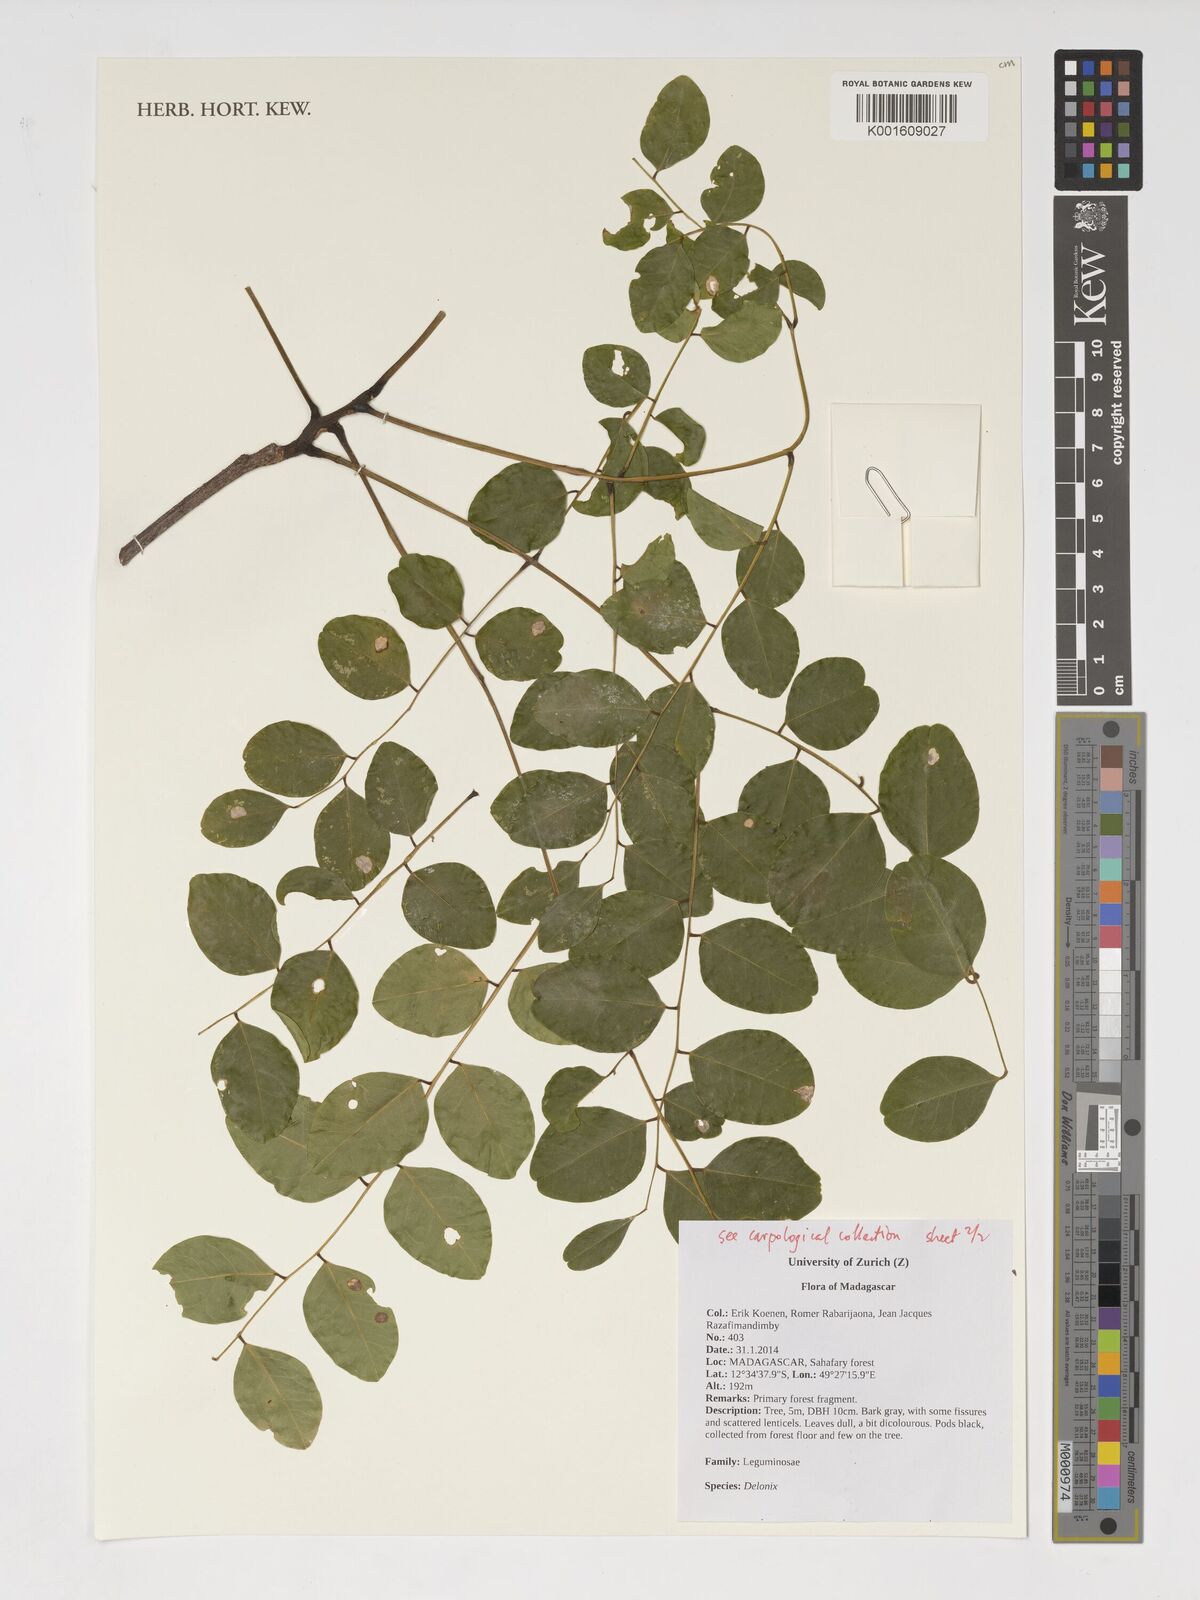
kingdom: Plantae
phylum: Tracheophyta
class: Magnoliopsida
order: Fabales
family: Fabaceae
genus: Delonix
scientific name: Delonix
